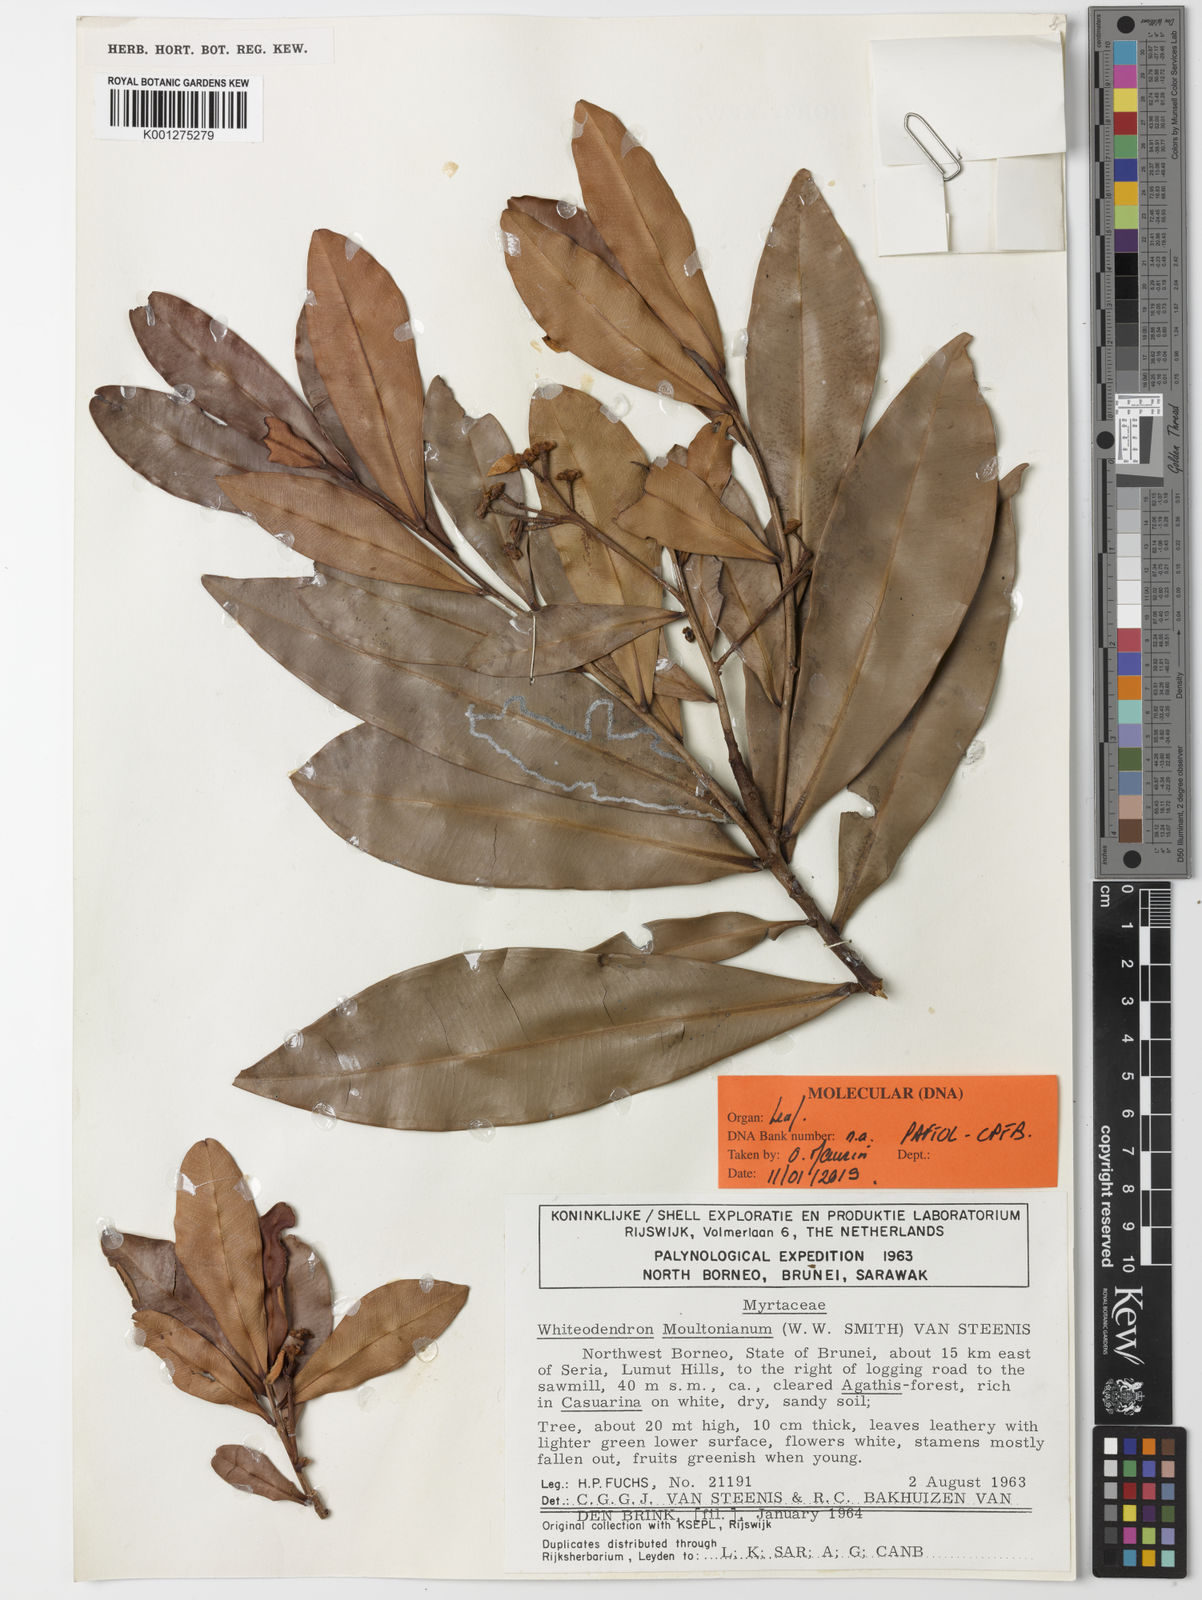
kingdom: Plantae
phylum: Tracheophyta
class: Magnoliopsida
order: Myrtales
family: Myrtaceae
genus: Whiteodendron
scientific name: Whiteodendron moultonianum
